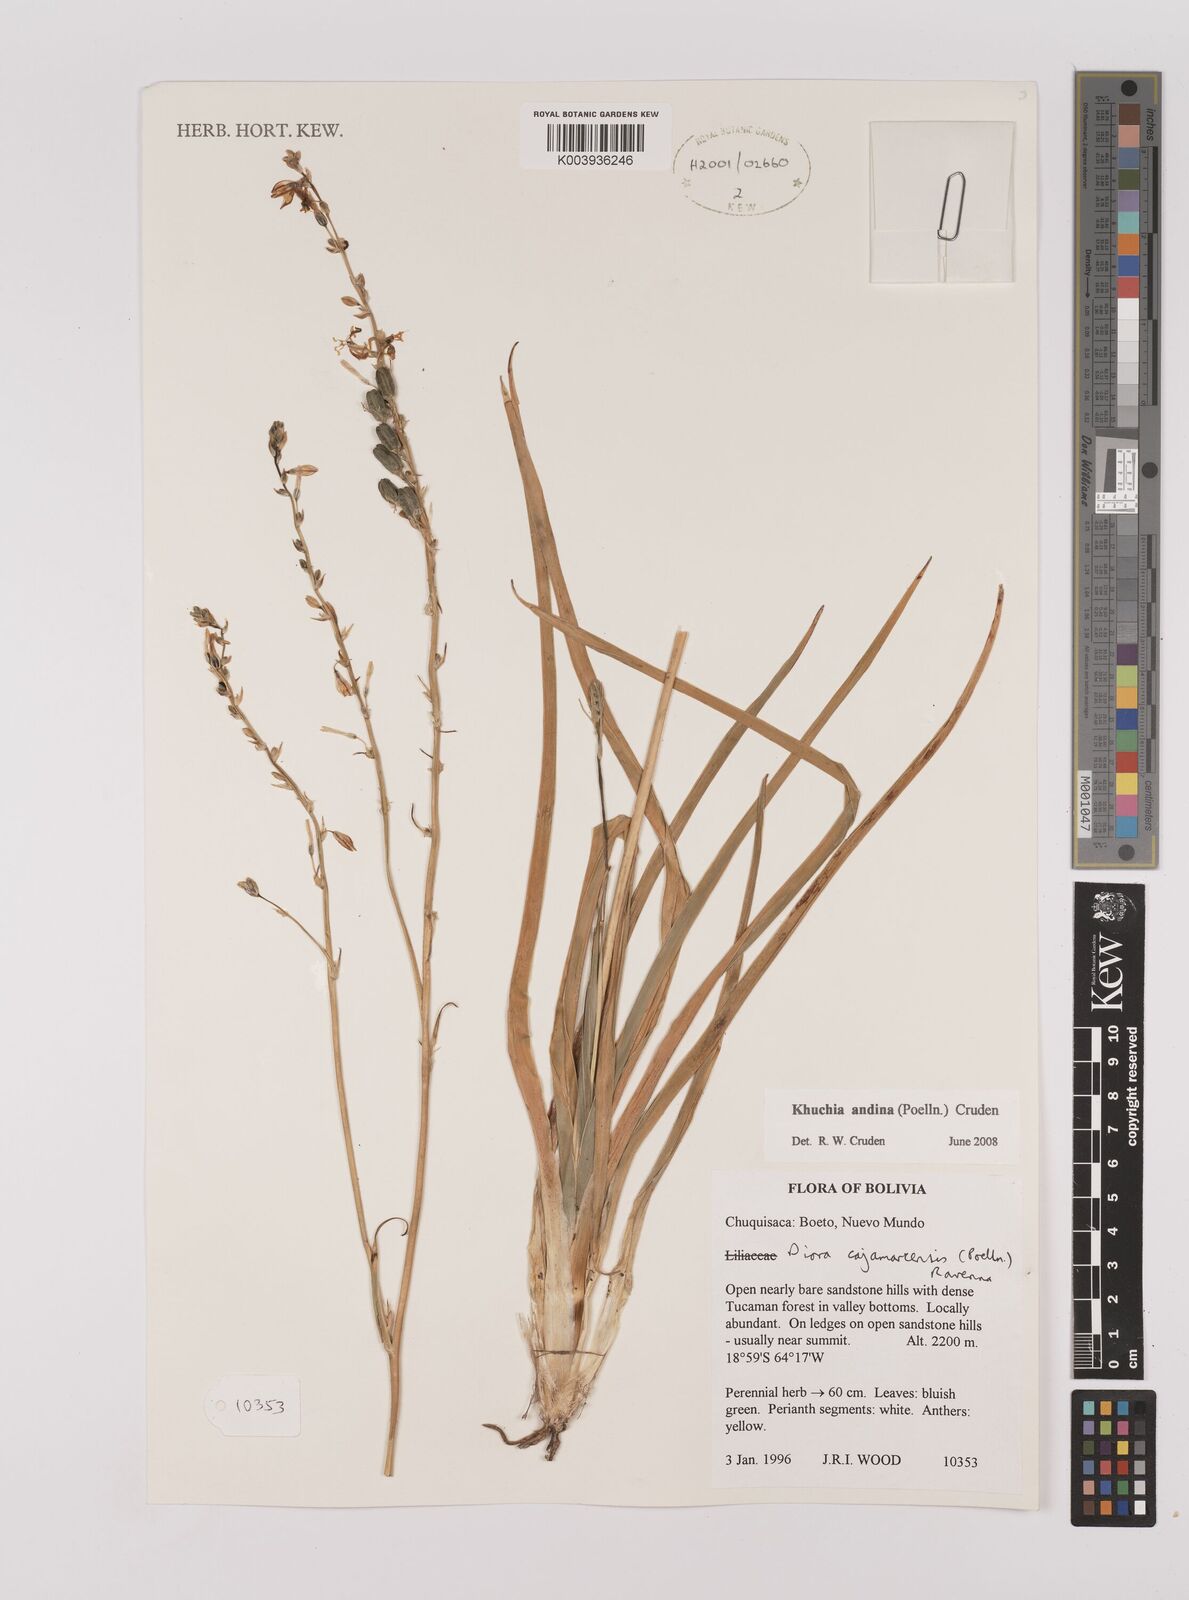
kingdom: Plantae
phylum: Tracheophyta
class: Liliopsida
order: Asparagales
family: Asparagaceae
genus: Echeandia
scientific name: Echeandia
